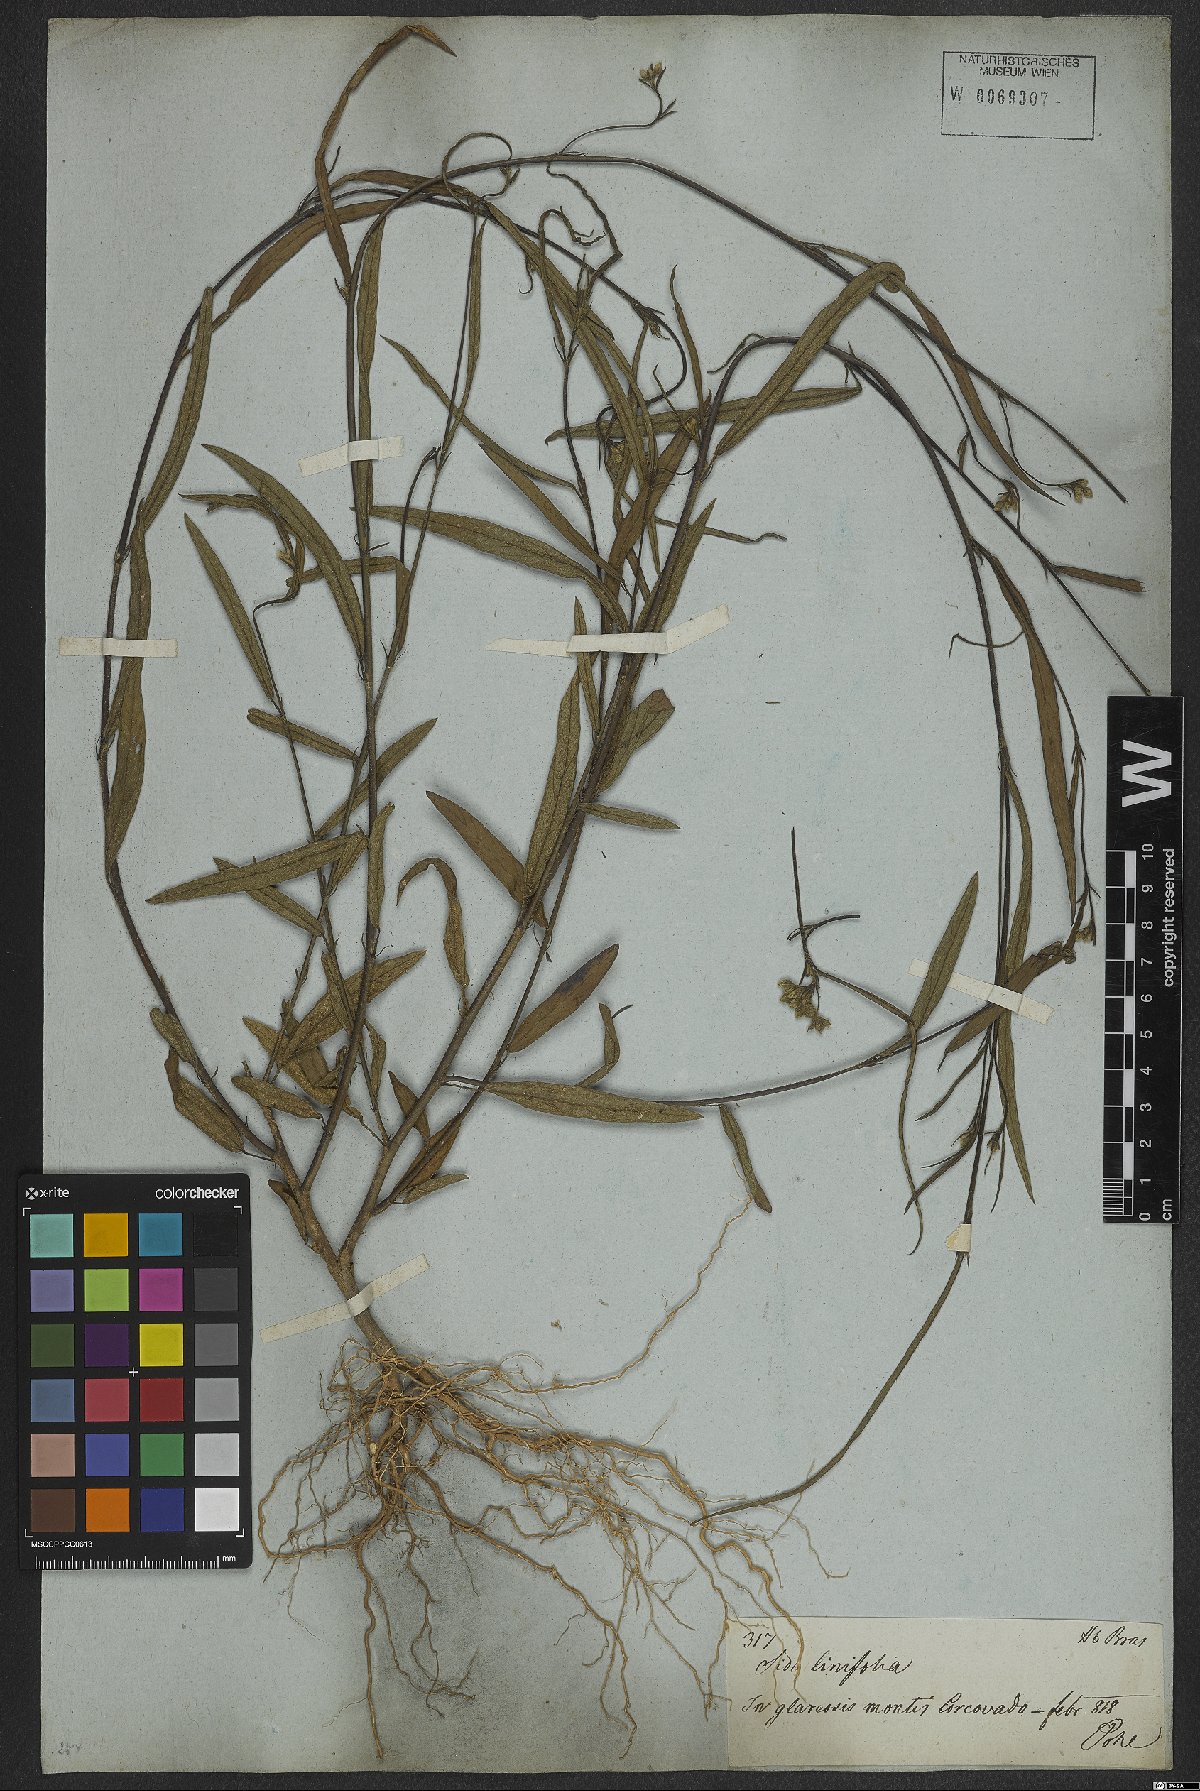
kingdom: Plantae
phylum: Tracheophyta
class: Magnoliopsida
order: Malvales
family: Malvaceae
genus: Sida
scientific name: Sida linifolia
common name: Flaxleaf fanpetals
